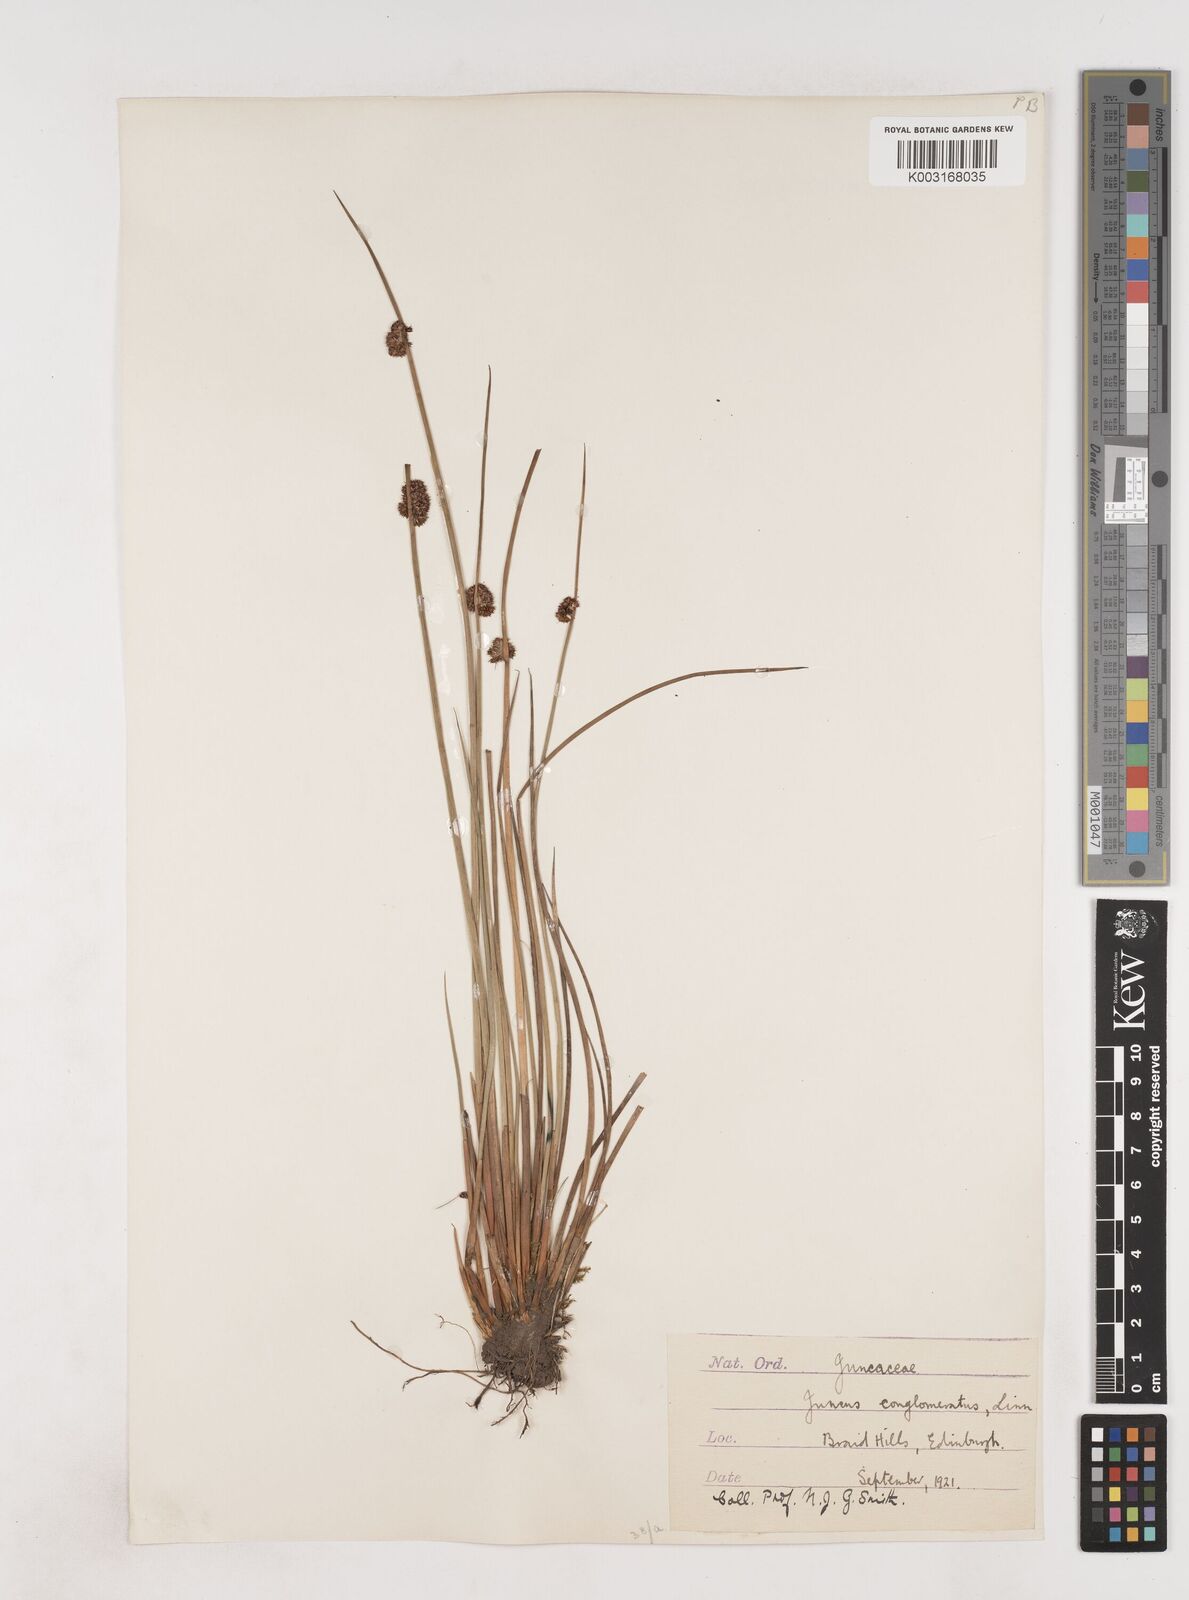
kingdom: Plantae
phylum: Tracheophyta
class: Liliopsida
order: Poales
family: Juncaceae
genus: Juncus
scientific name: Juncus conglomeratus
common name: Compact rush
